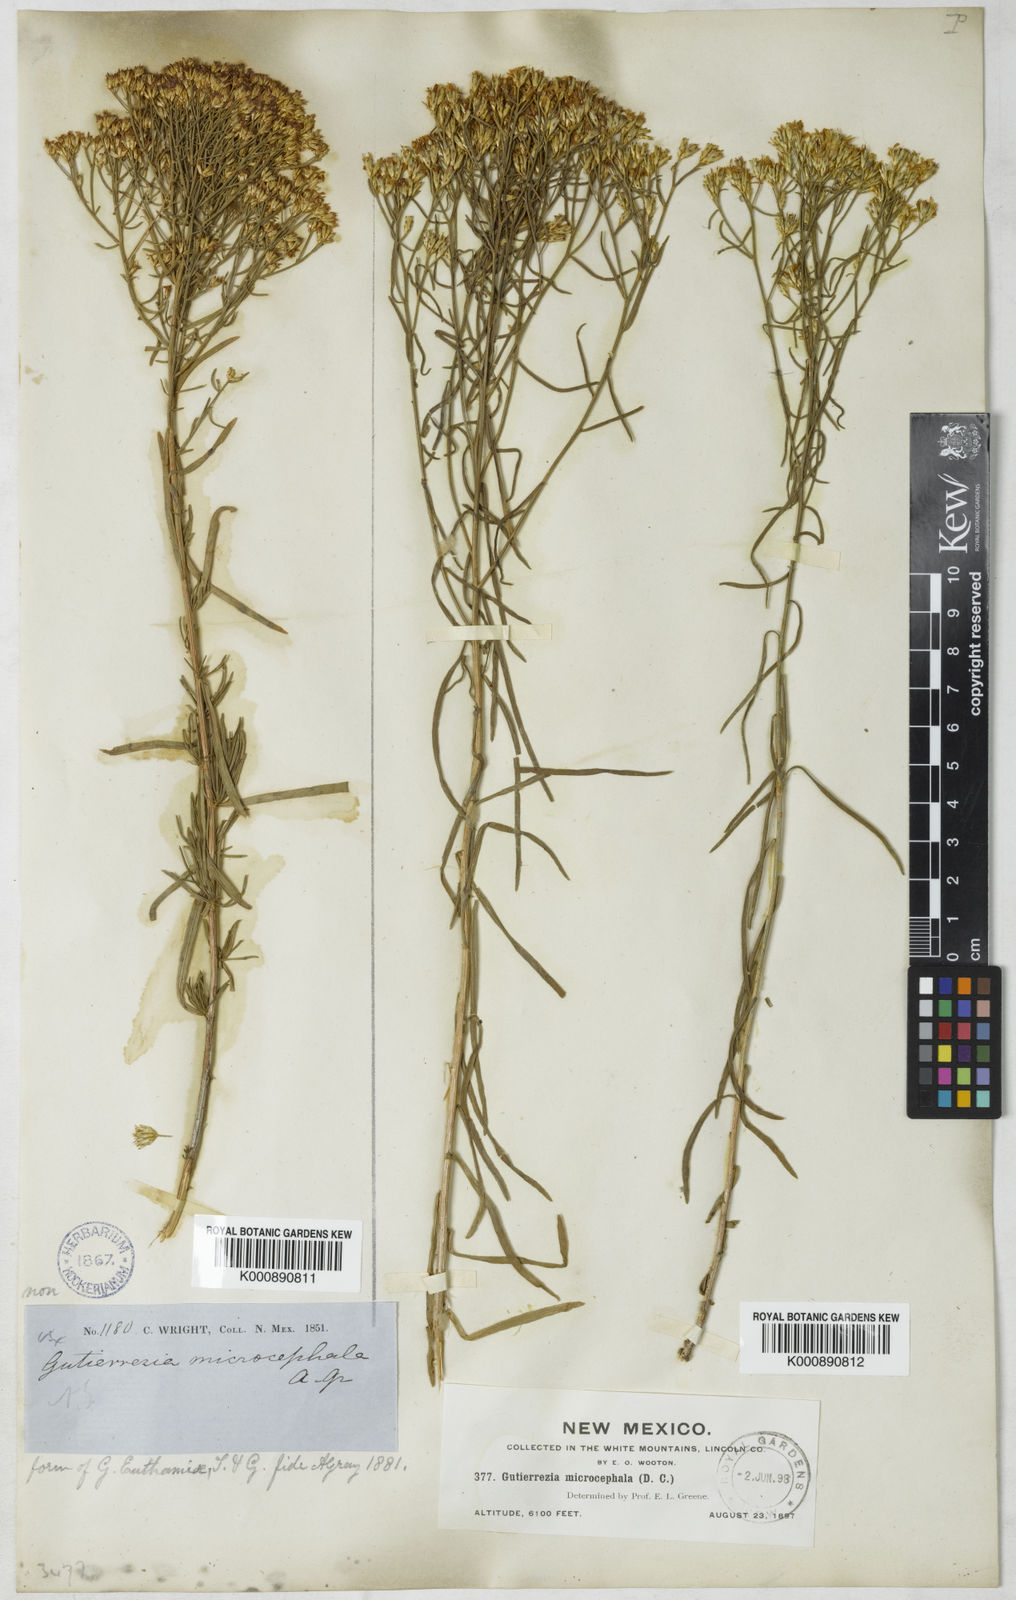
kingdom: Plantae
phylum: Tracheophyta
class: Magnoliopsida
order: Asterales
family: Asteraceae
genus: Gutierrezia
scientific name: Gutierrezia microcephala
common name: Thread snakeweed
